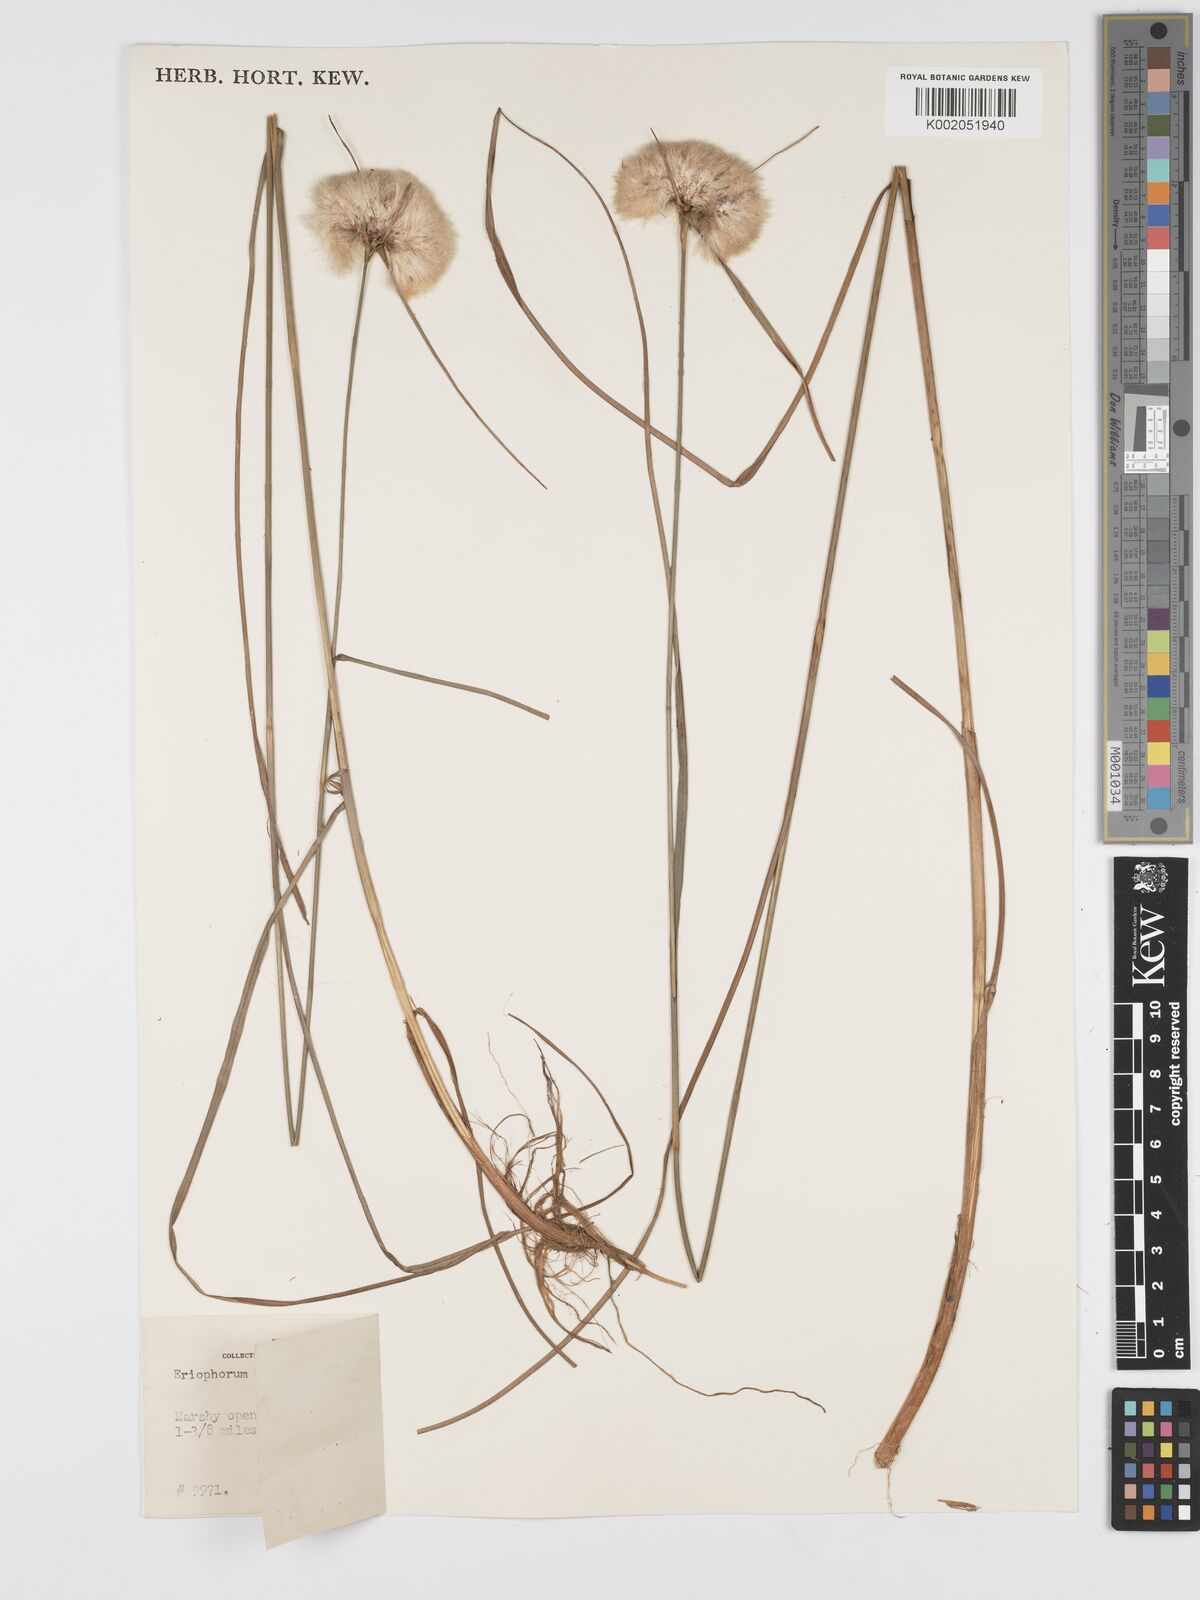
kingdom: Plantae
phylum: Tracheophyta
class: Liliopsida
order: Poales
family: Cyperaceae
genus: Eriophorum
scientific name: Eriophorum virginicum
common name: Tawny cottongrass
